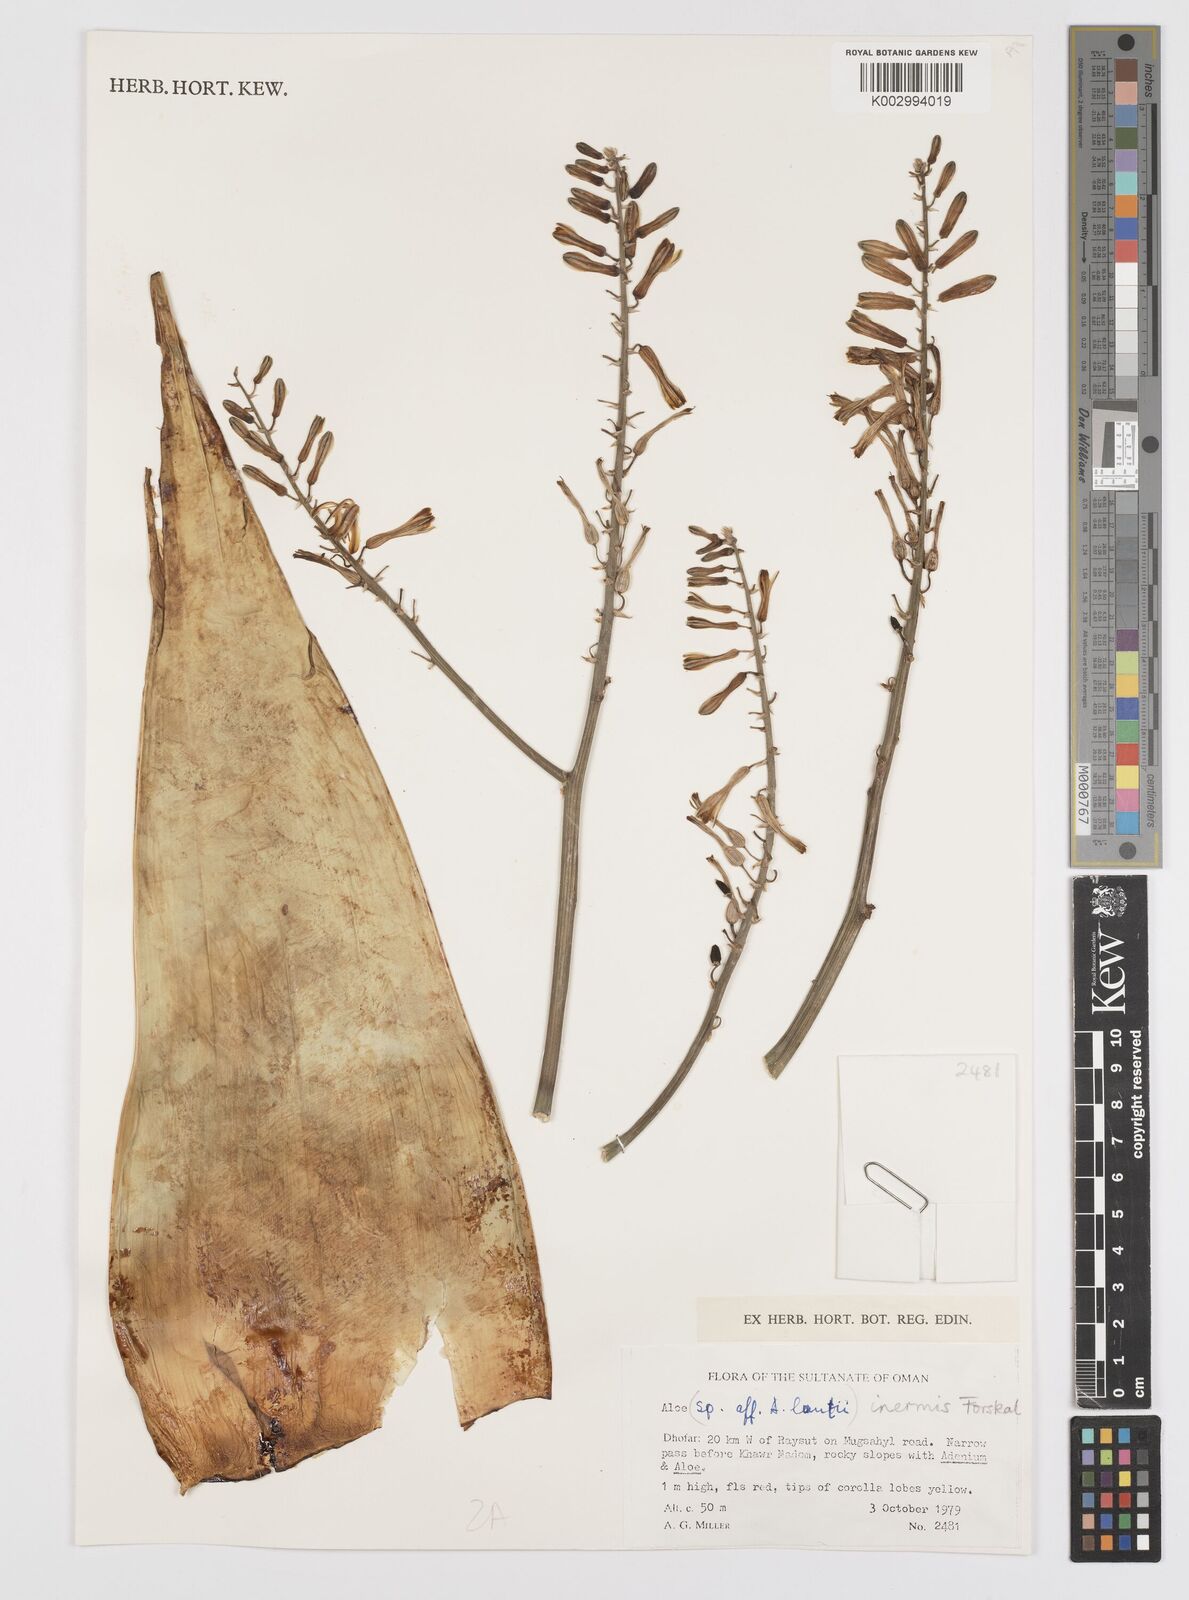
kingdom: Plantae
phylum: Tracheophyta
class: Liliopsida
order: Asparagales
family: Asphodelaceae
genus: Aloe
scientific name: Aloe inermis
